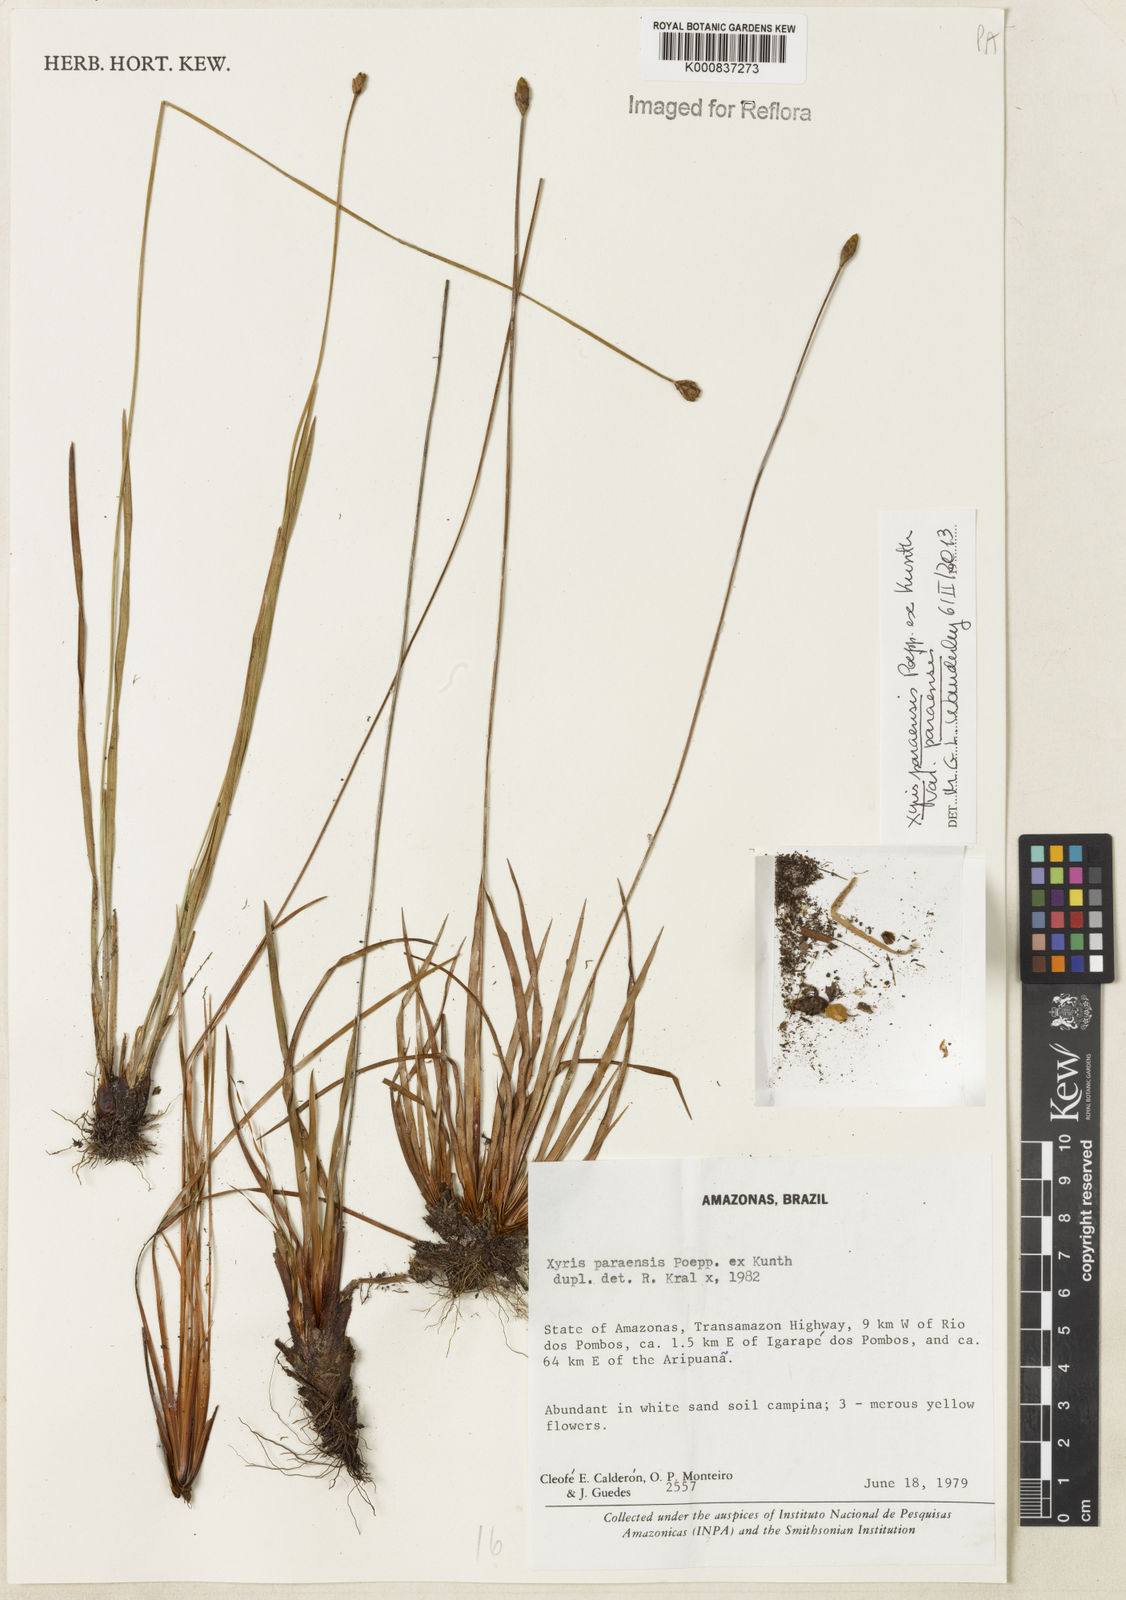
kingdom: Plantae
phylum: Tracheophyta
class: Liliopsida
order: Poales
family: Xyridaceae
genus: Xyris
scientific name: Xyris paraensis
